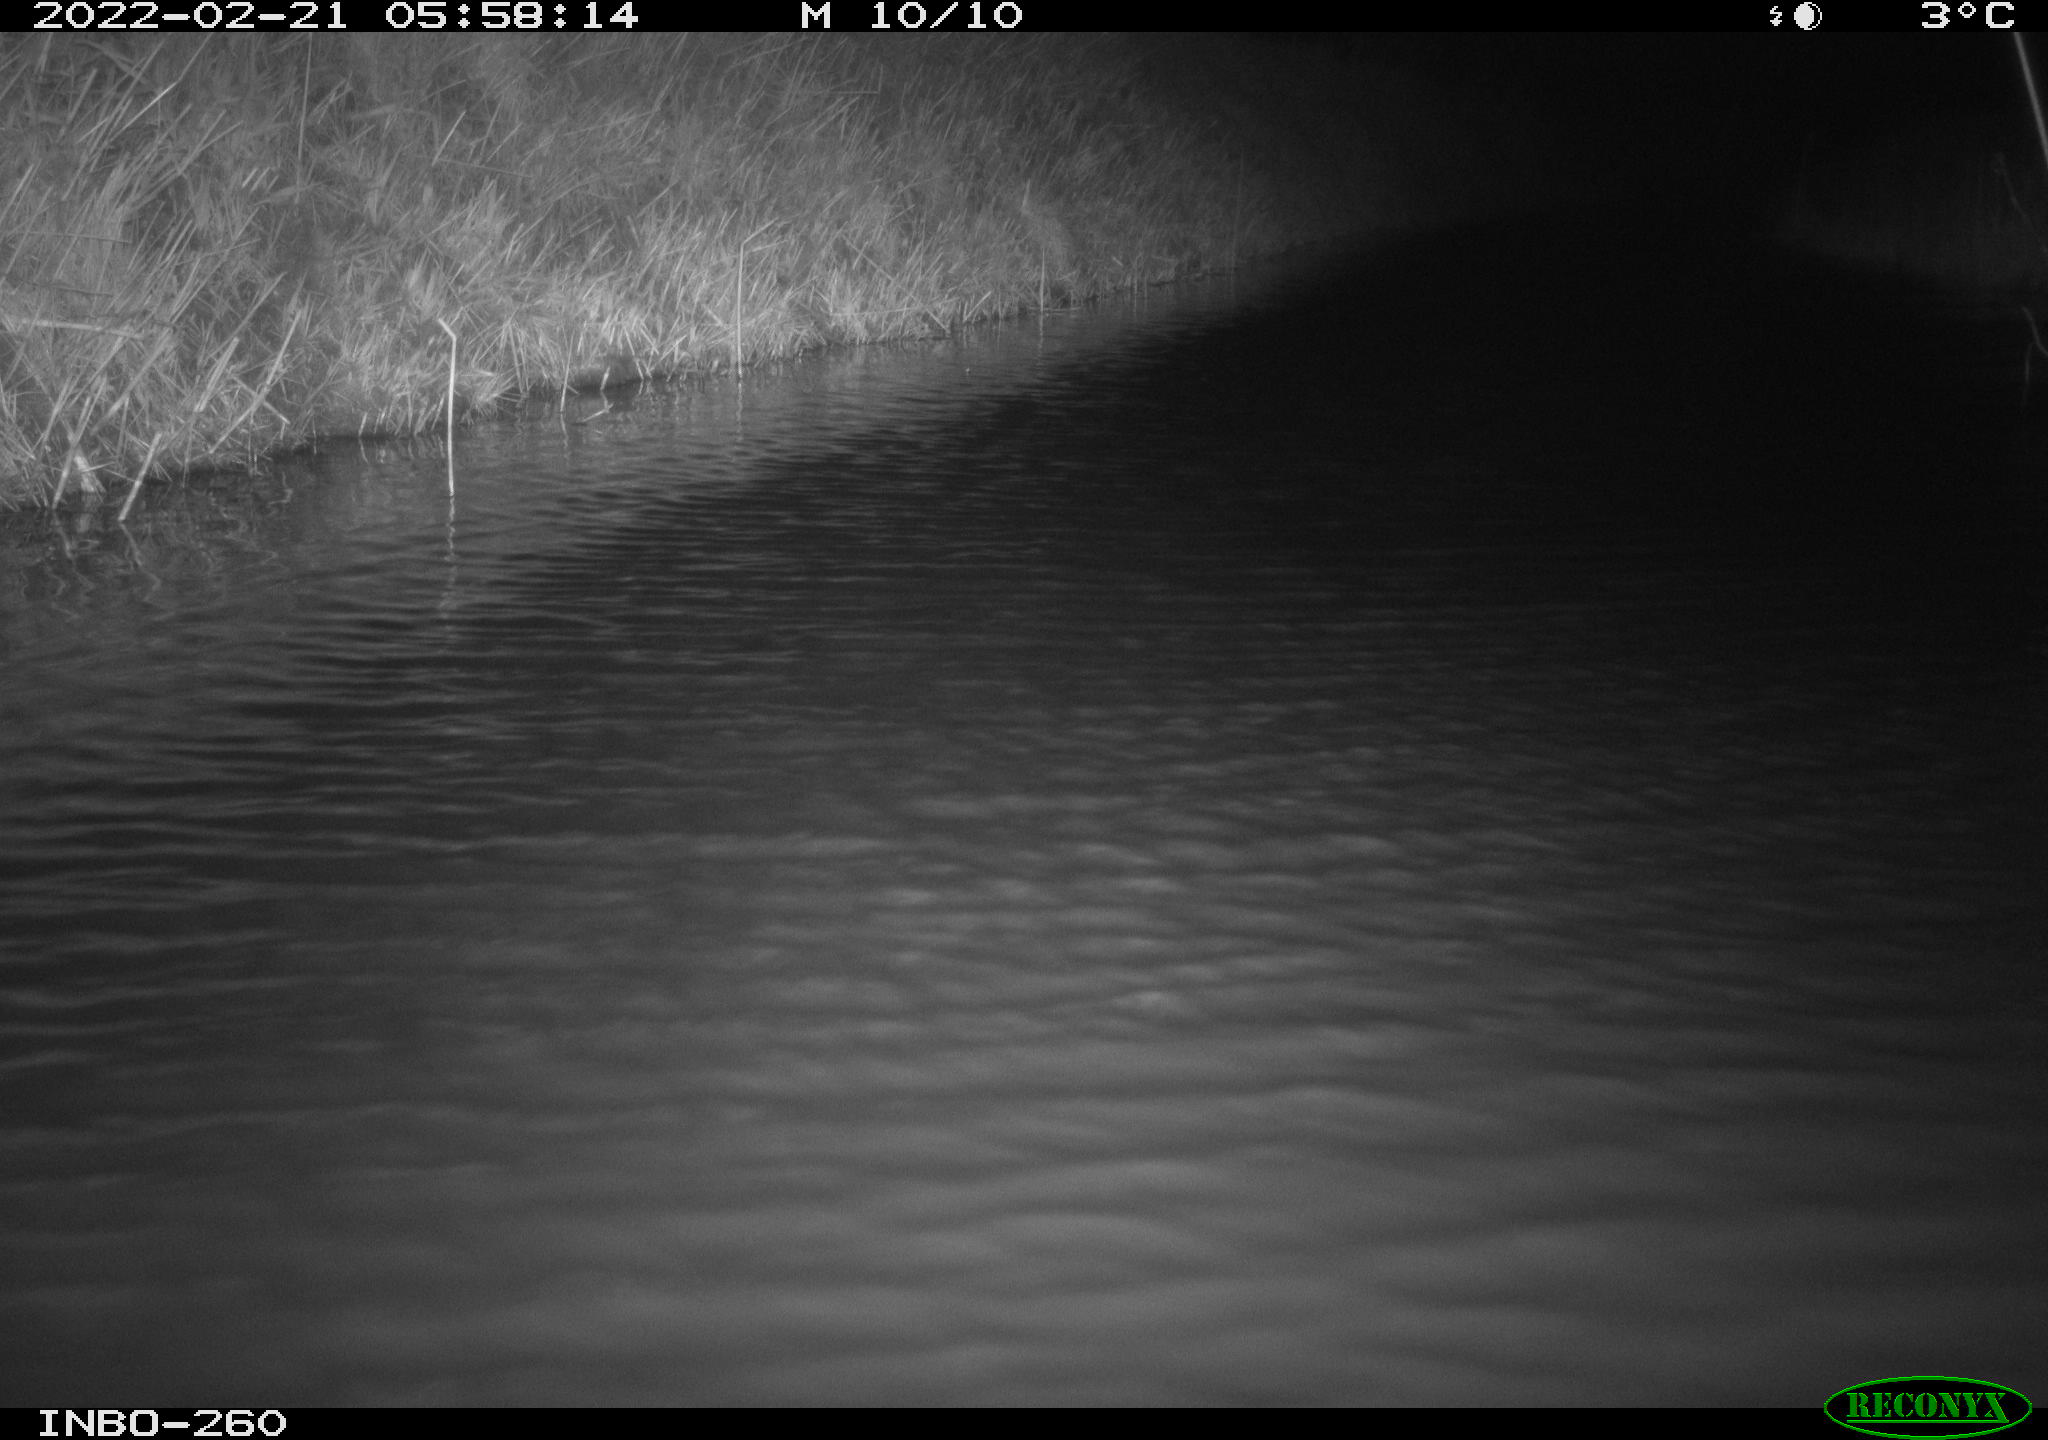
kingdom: Animalia
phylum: Chordata
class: Mammalia
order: Rodentia
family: Muridae
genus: Rattus
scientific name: Rattus norvegicus
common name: Brown rat
